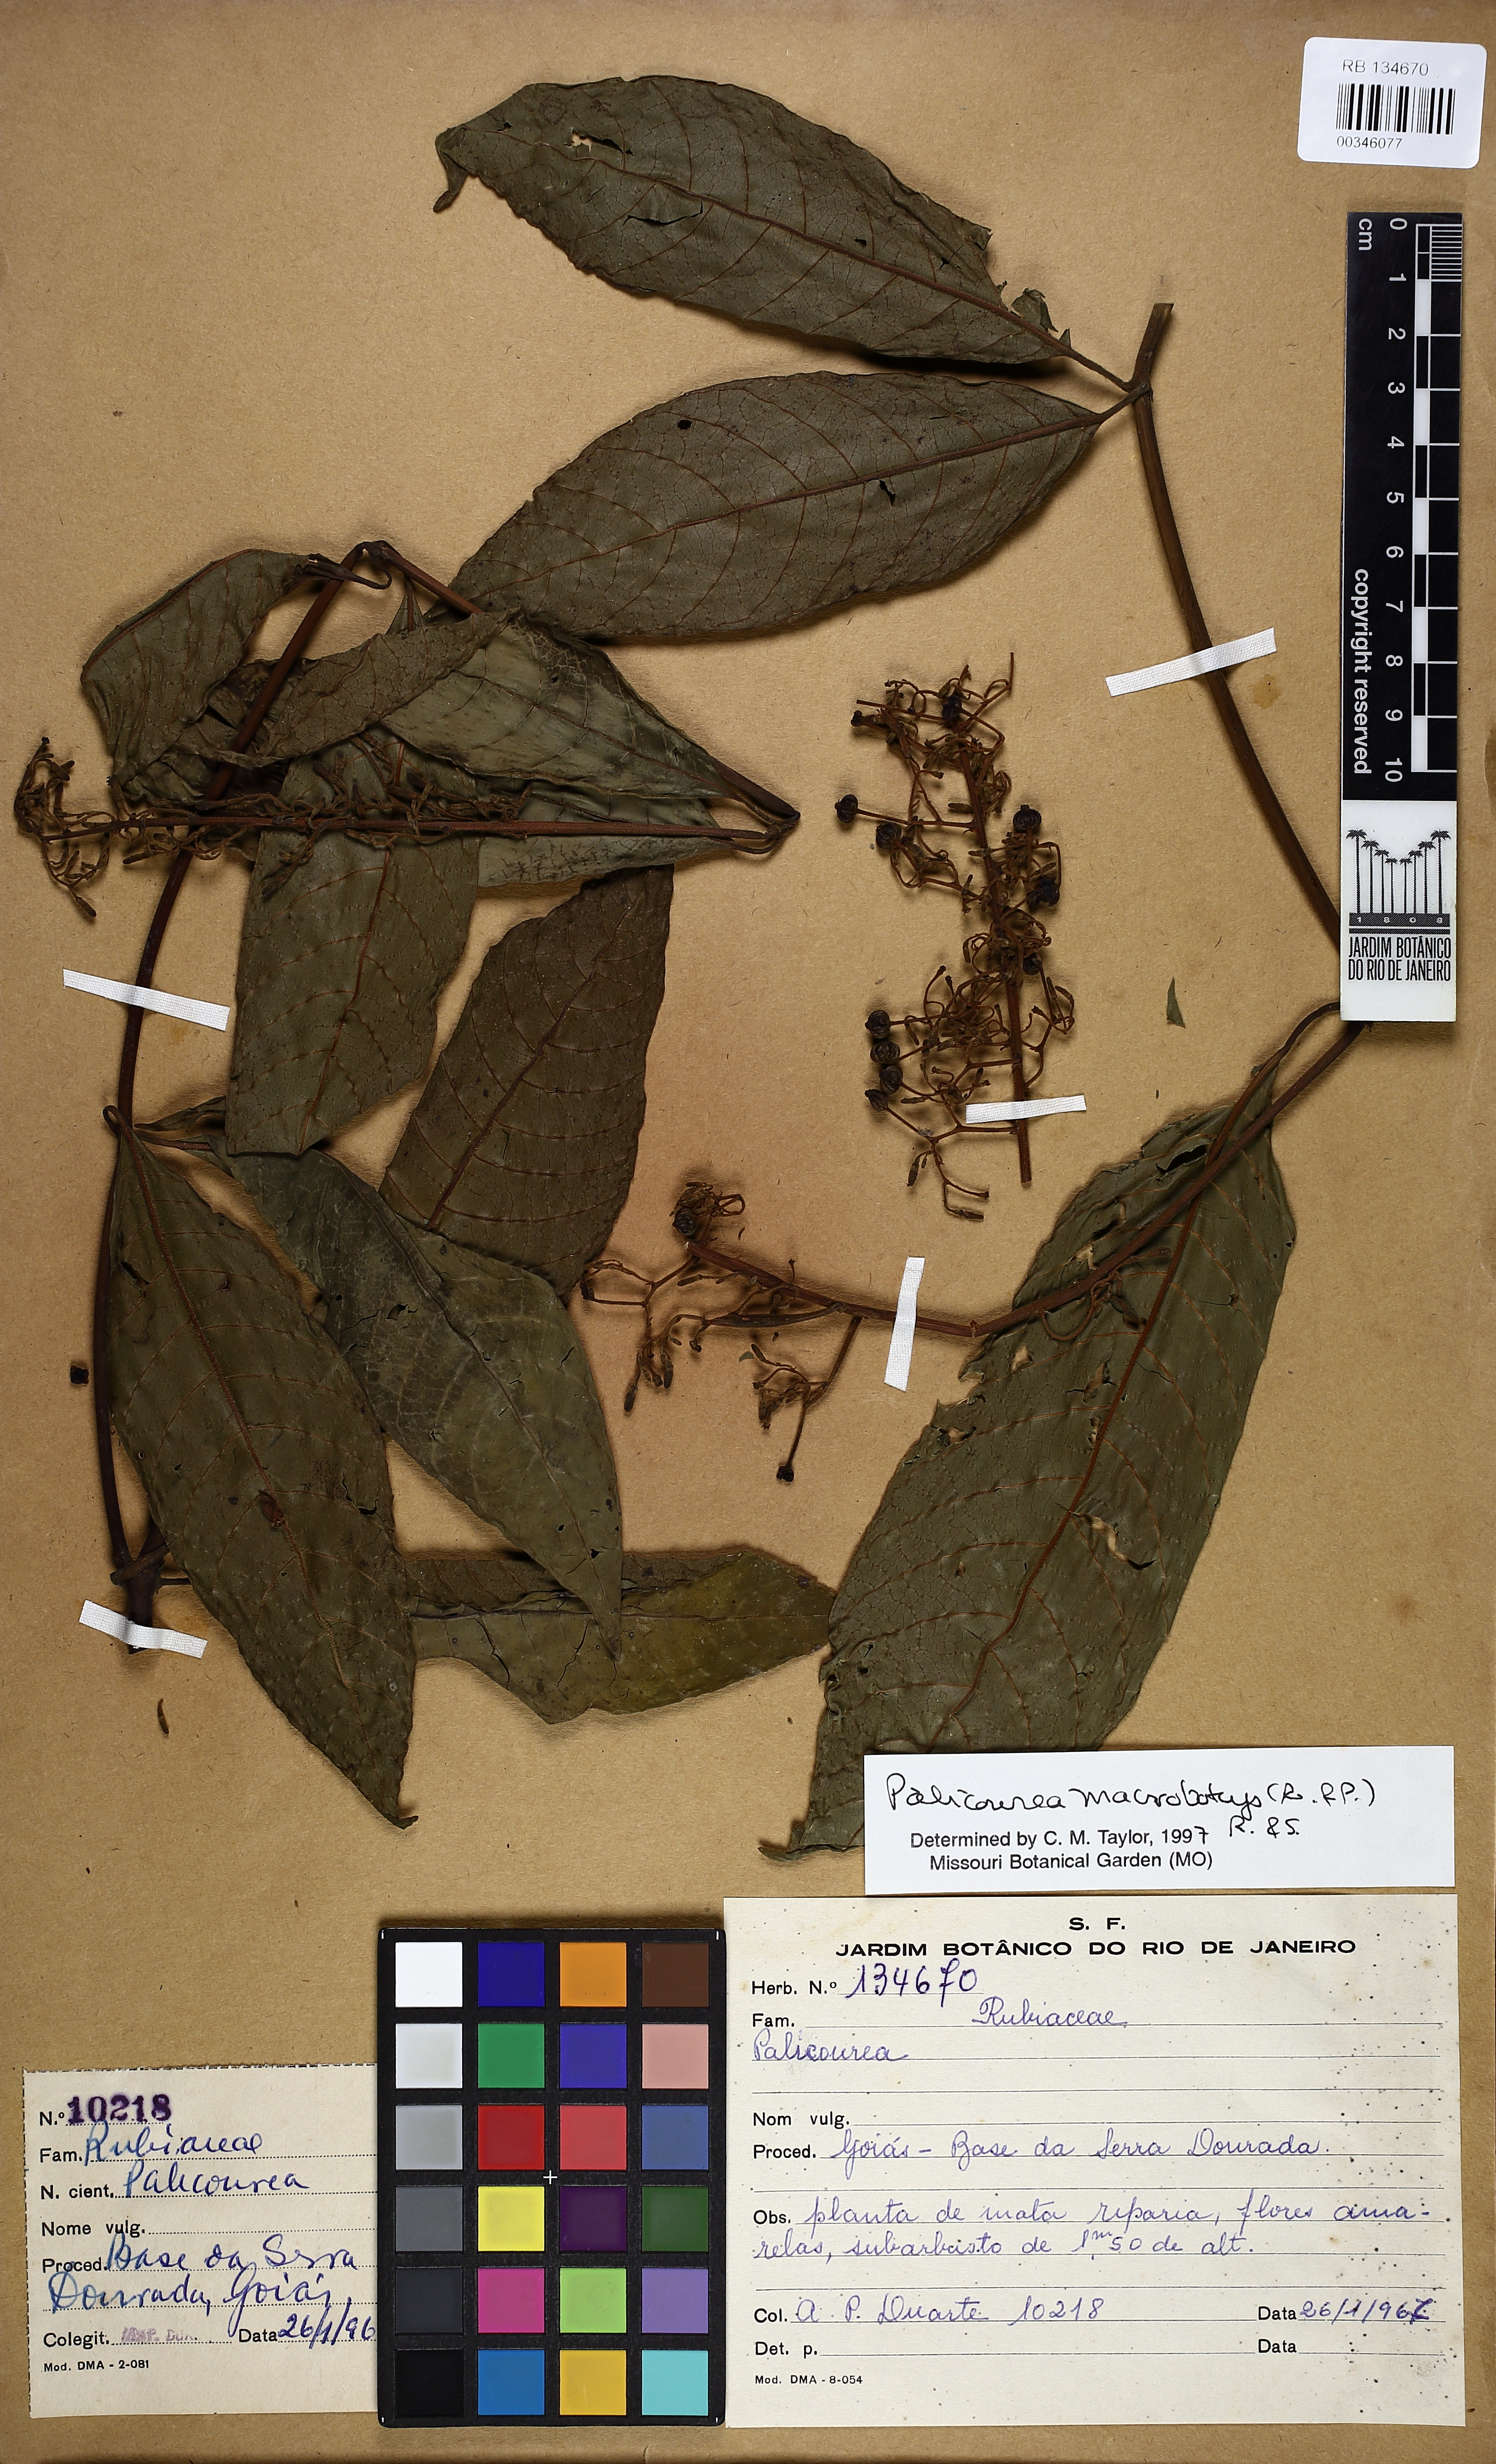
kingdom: Plantae
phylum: Tracheophyta
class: Magnoliopsida
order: Gentianales
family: Rubiaceae
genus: Palicourea
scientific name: Palicourea macrobotrys
